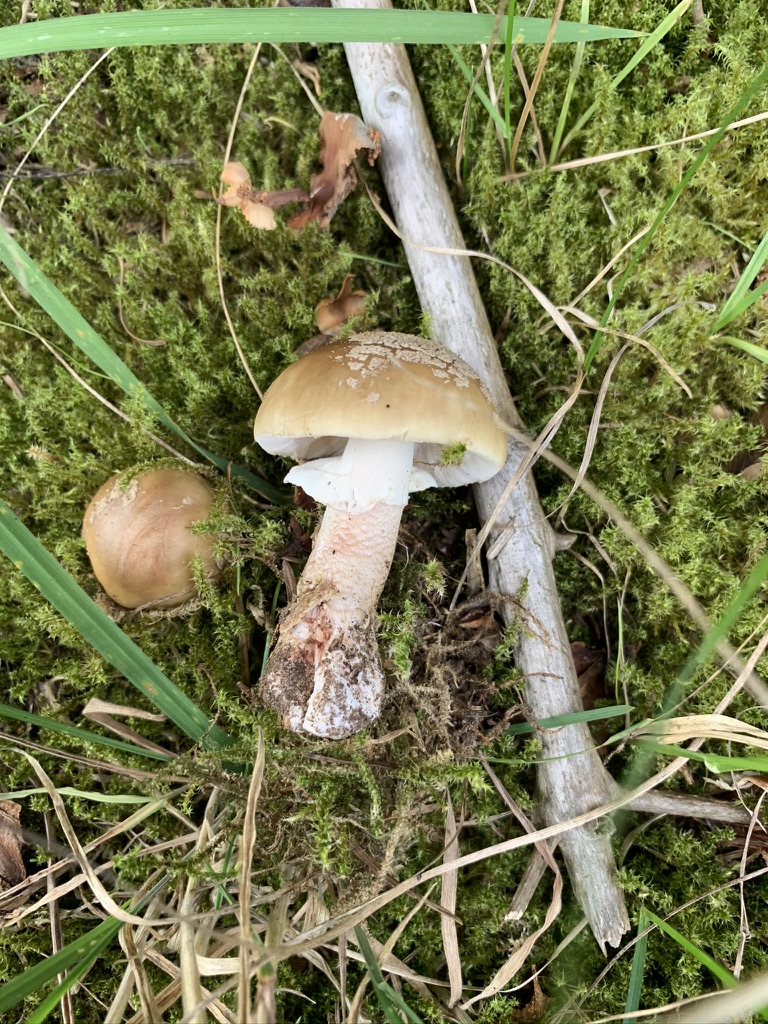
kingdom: Fungi
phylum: Basidiomycota
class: Agaricomycetes
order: Agaricales
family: Amanitaceae
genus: Amanita
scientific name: Amanita rubescens
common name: rødmende fluesvamp
